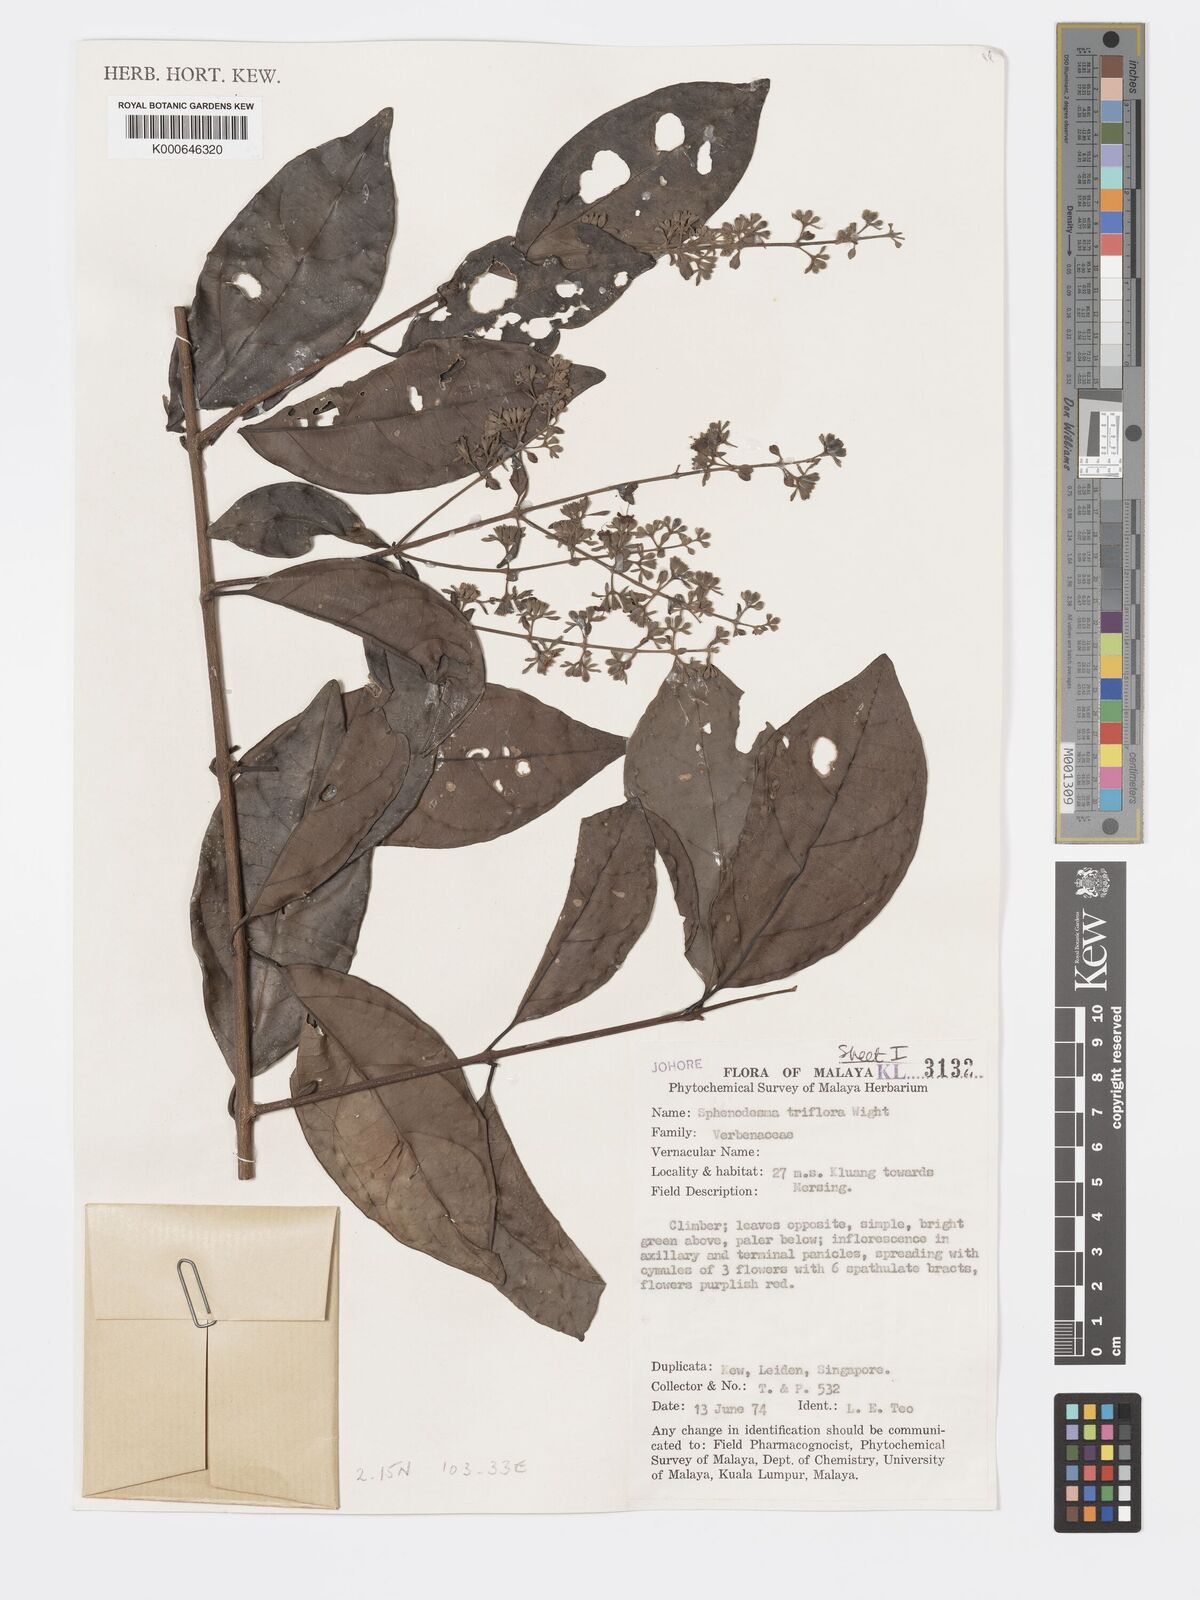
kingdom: Plantae
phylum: Tracheophyta
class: Magnoliopsida
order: Lamiales
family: Lamiaceae
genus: Sphenodesme
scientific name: Sphenodesme
